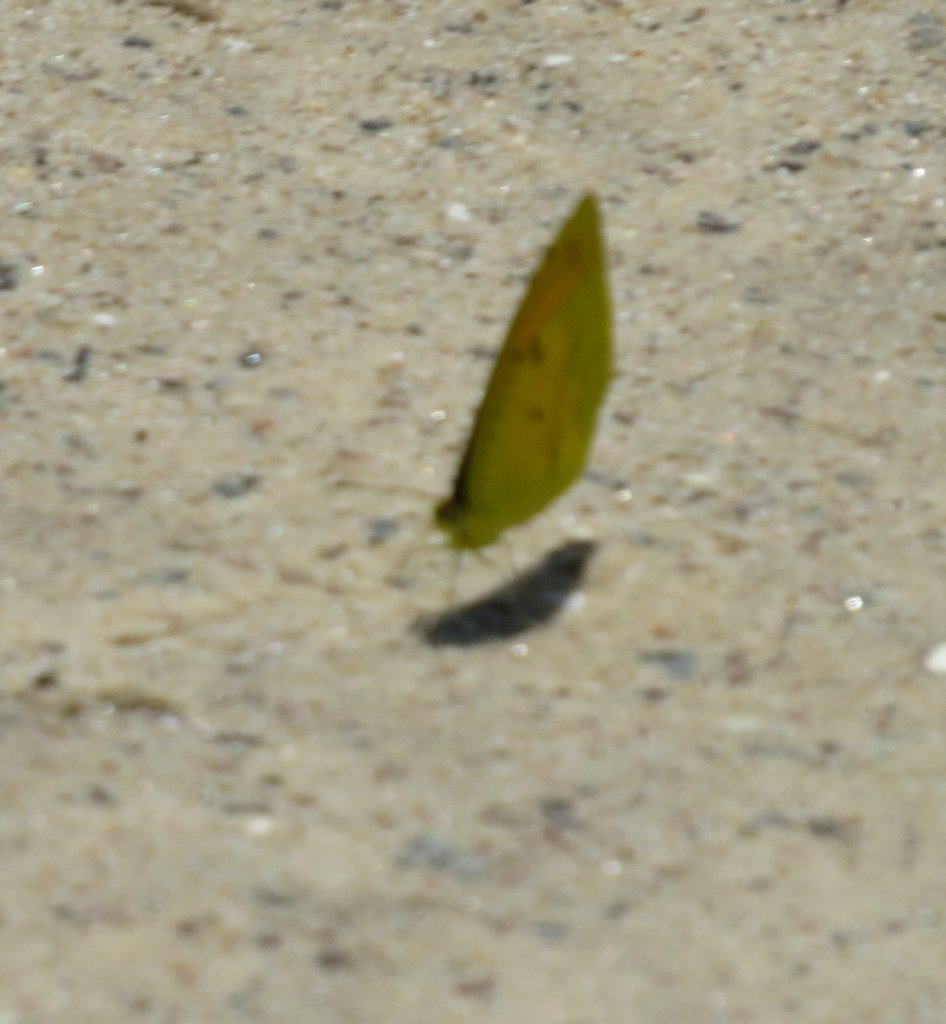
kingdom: Animalia
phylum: Arthropoda
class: Insecta
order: Lepidoptera
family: Pieridae
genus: Abaeis
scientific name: Abaeis nicippe
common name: Sleepy Orange
